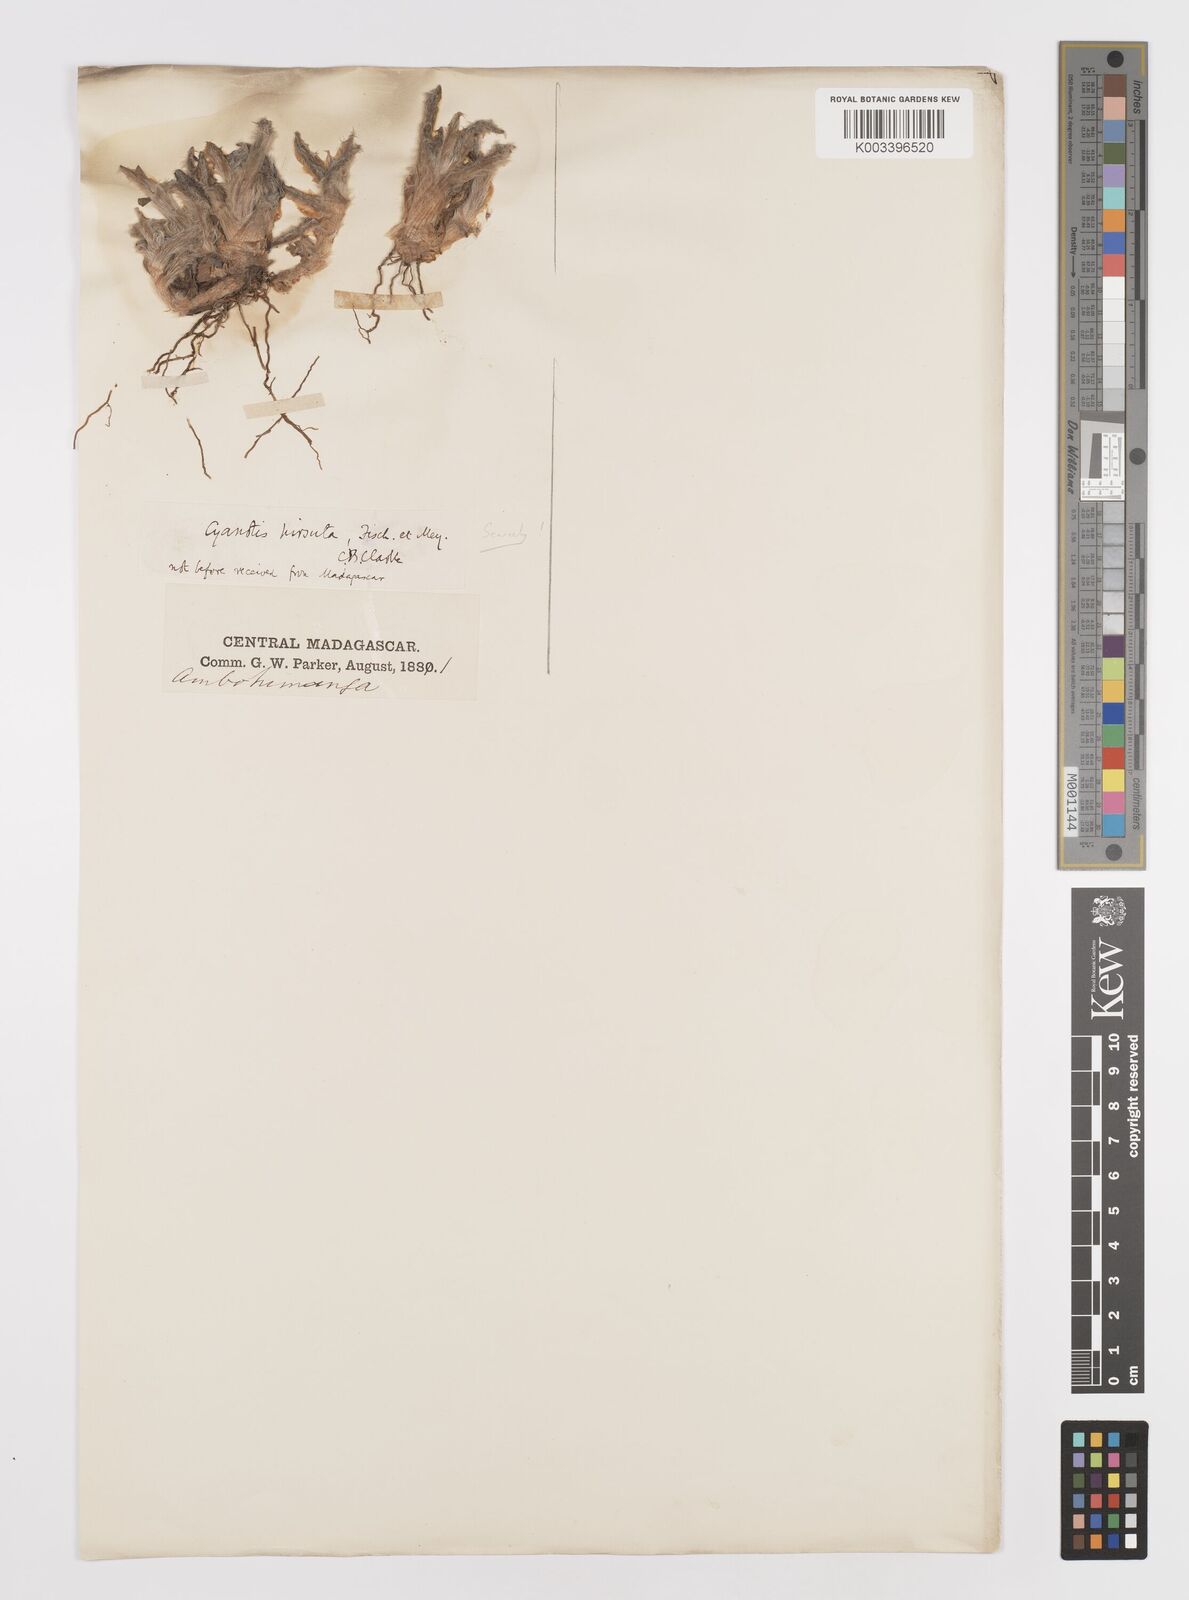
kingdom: Plantae
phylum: Tracheophyta
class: Liliopsida
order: Commelinales
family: Commelinaceae
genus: Cyanotis
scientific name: Cyanotis
